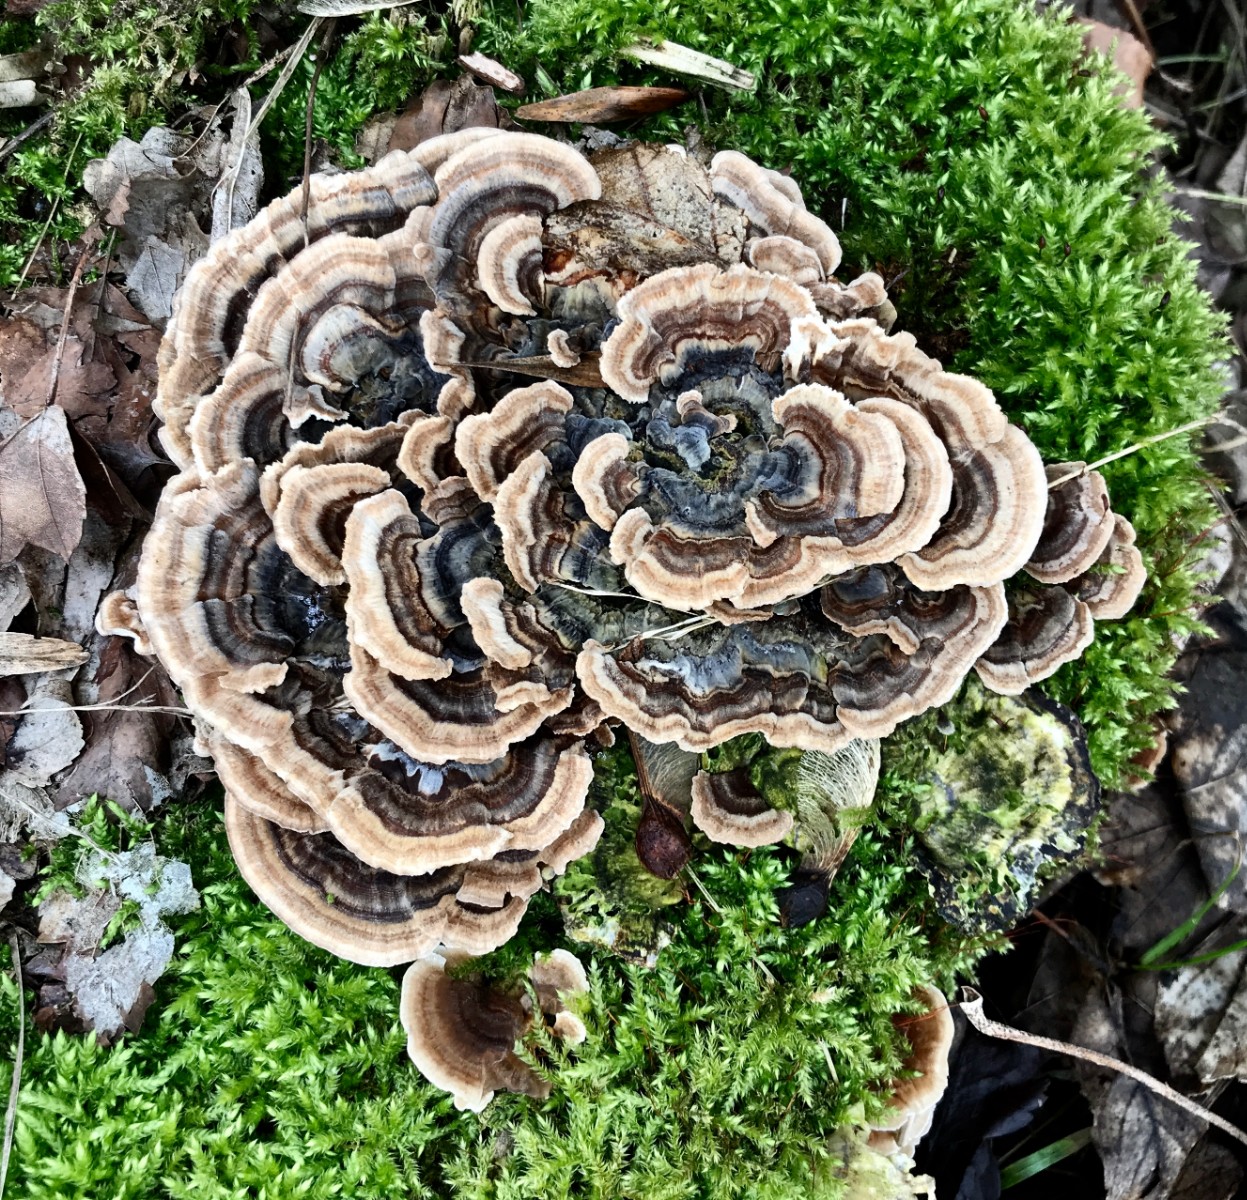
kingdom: Fungi
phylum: Basidiomycota
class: Agaricomycetes
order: Polyporales
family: Polyporaceae
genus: Trametes
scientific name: Trametes versicolor
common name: broget læderporesvamp
